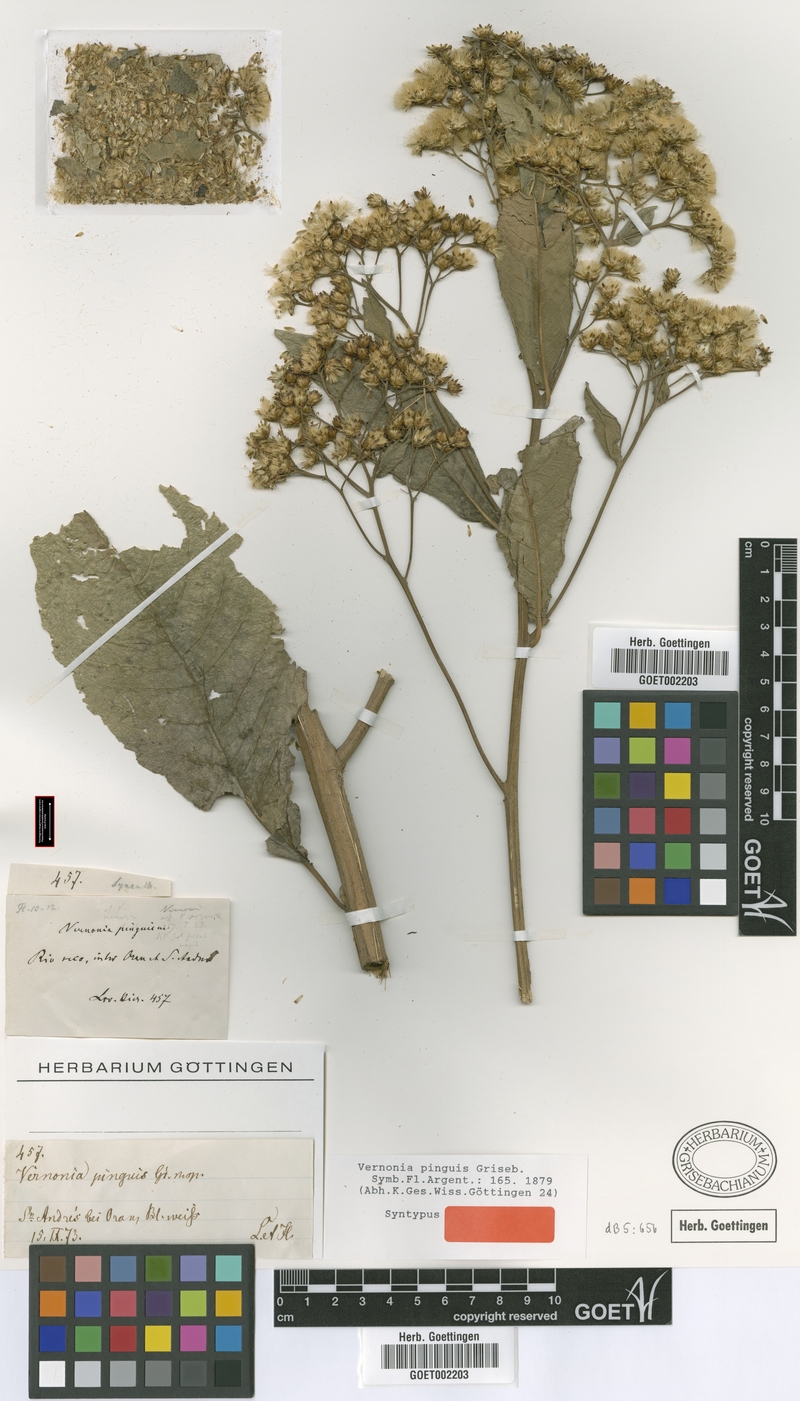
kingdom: Plantae
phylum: Tracheophyta
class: Magnoliopsida
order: Asterales
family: Asteraceae
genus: Vernonanthura
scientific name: Vernonanthura pinguis
